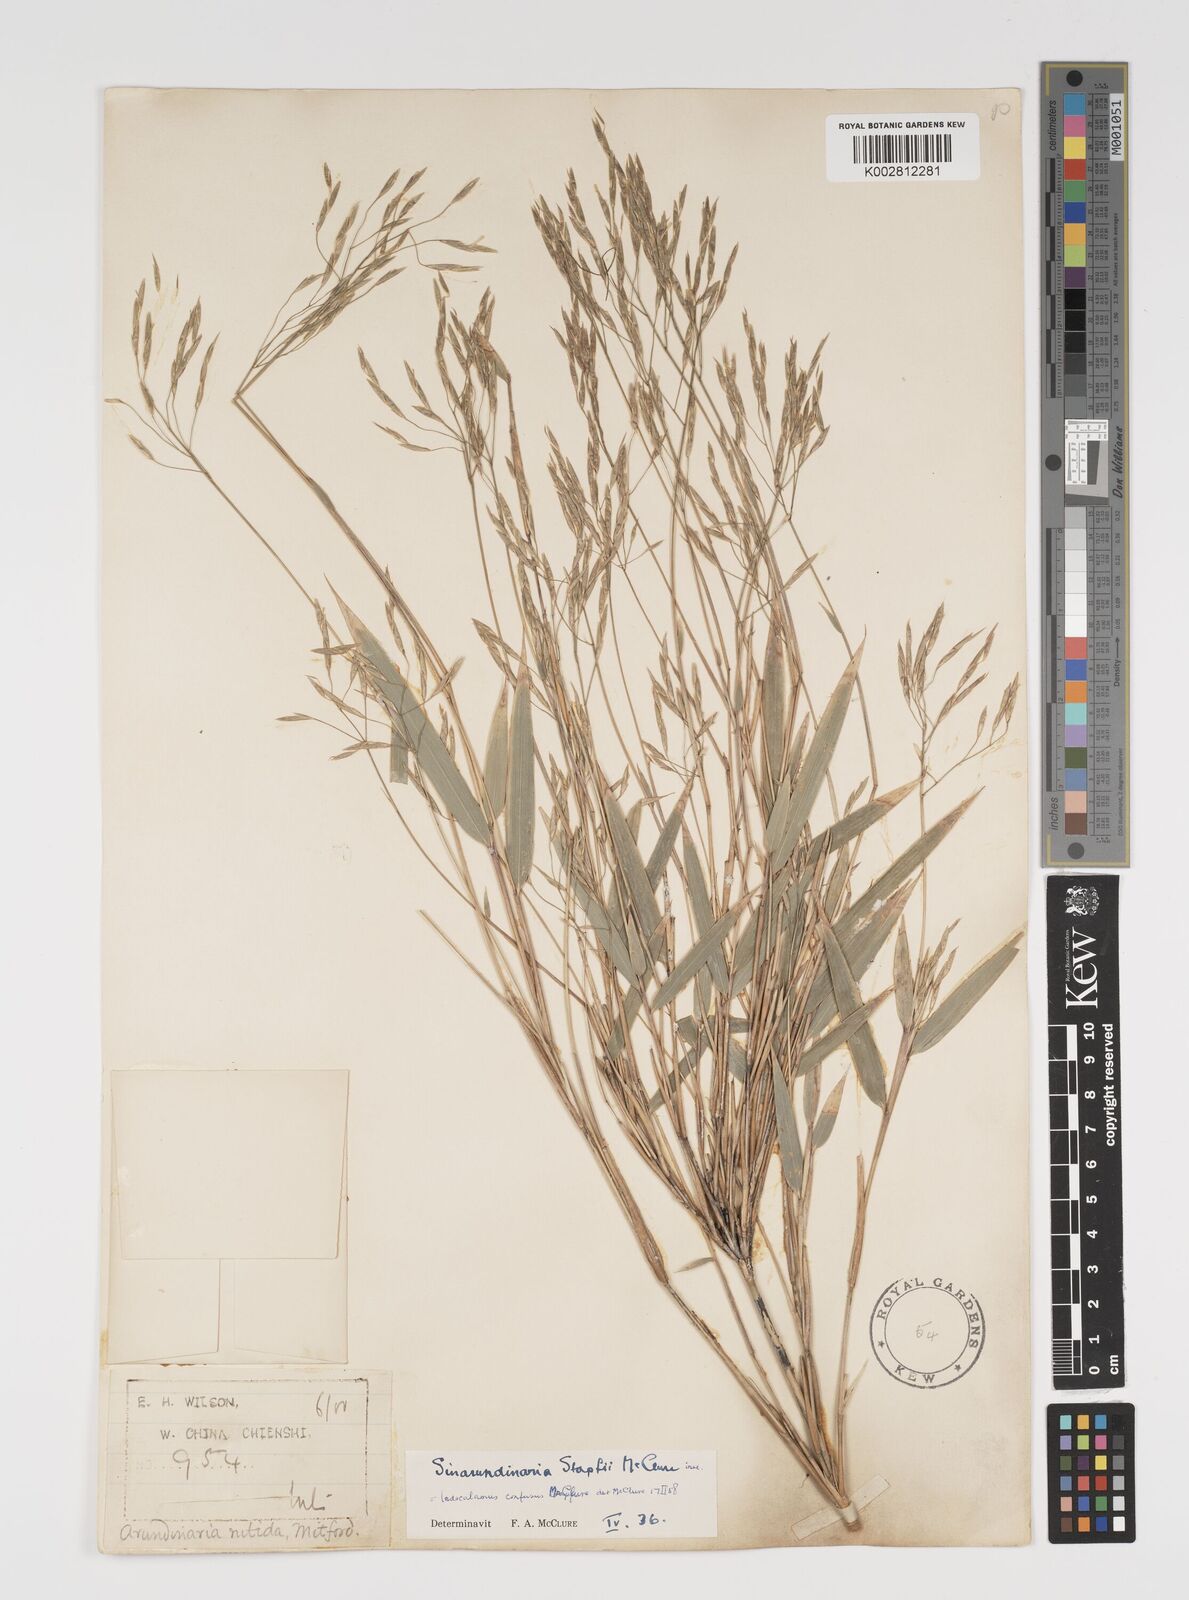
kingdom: Plantae
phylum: Tracheophyta
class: Liliopsida
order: Poales
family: Poaceae
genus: Yushania
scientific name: Yushania confusa
